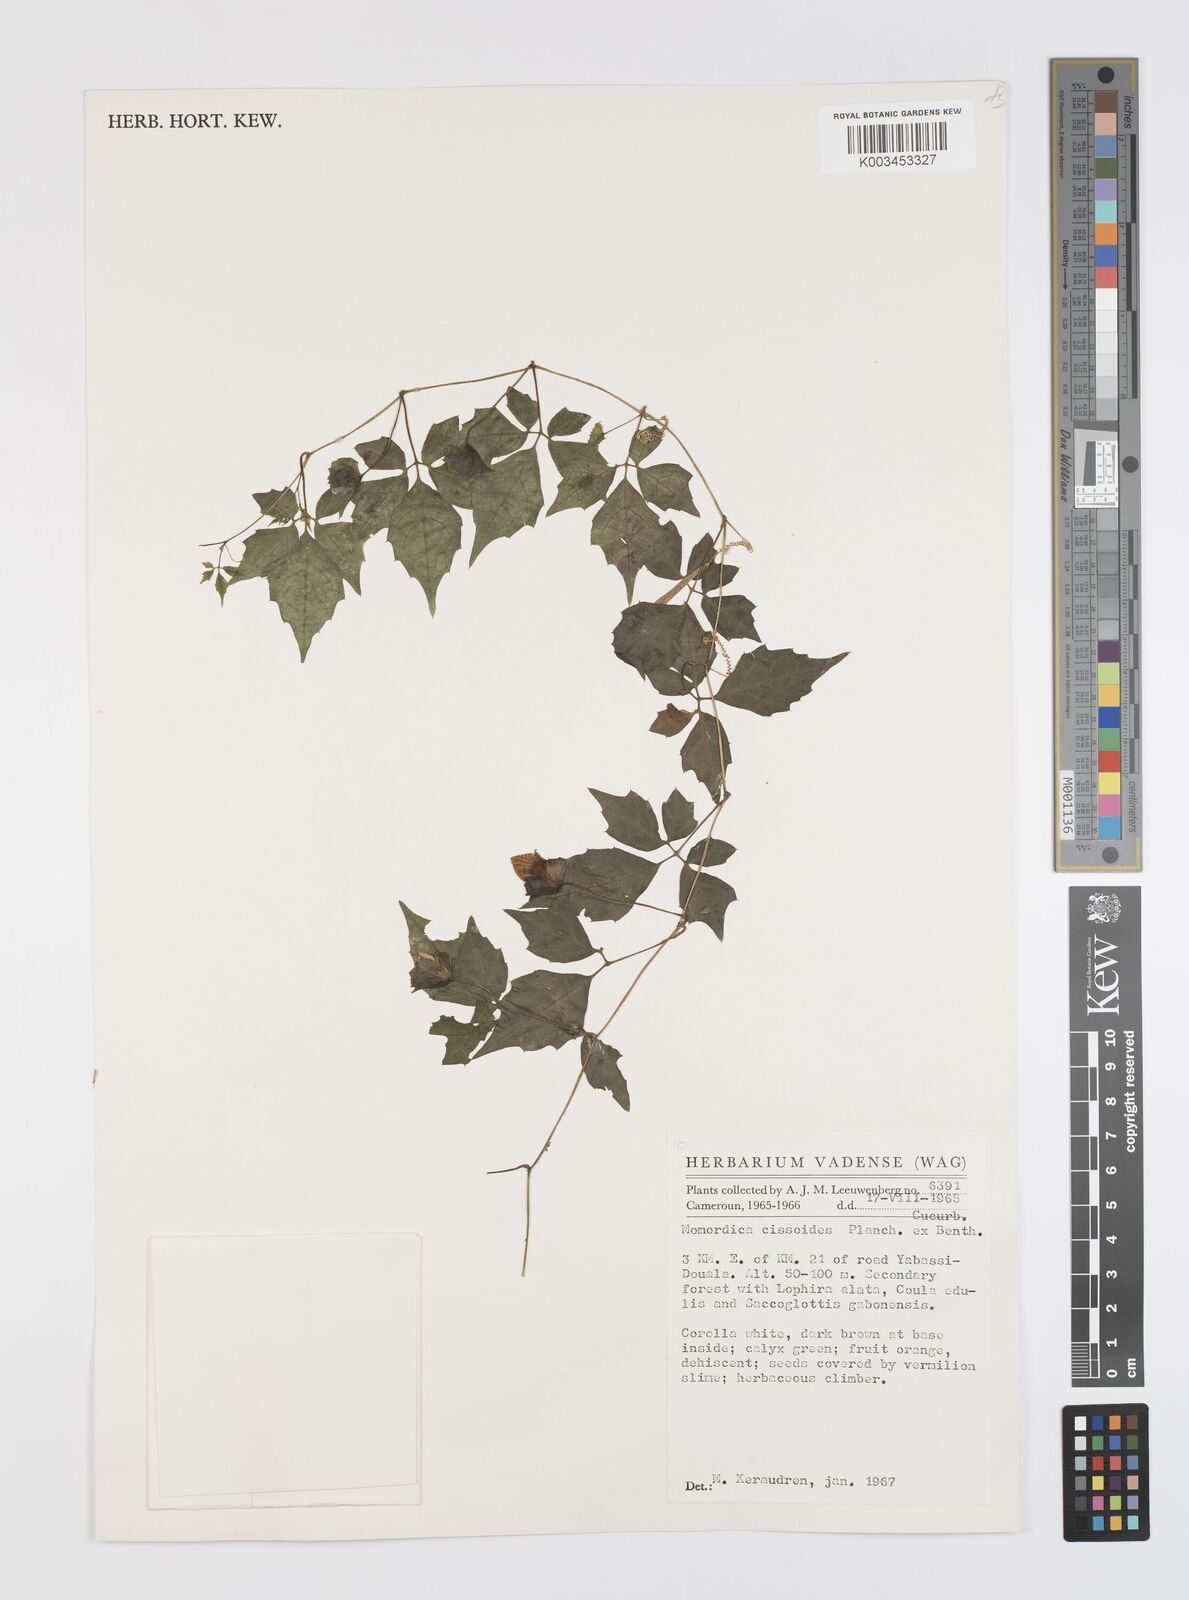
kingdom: Plantae
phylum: Tracheophyta
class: Magnoliopsida
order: Cucurbitales
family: Cucurbitaceae
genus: Momordica
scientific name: Momordica cissoides
